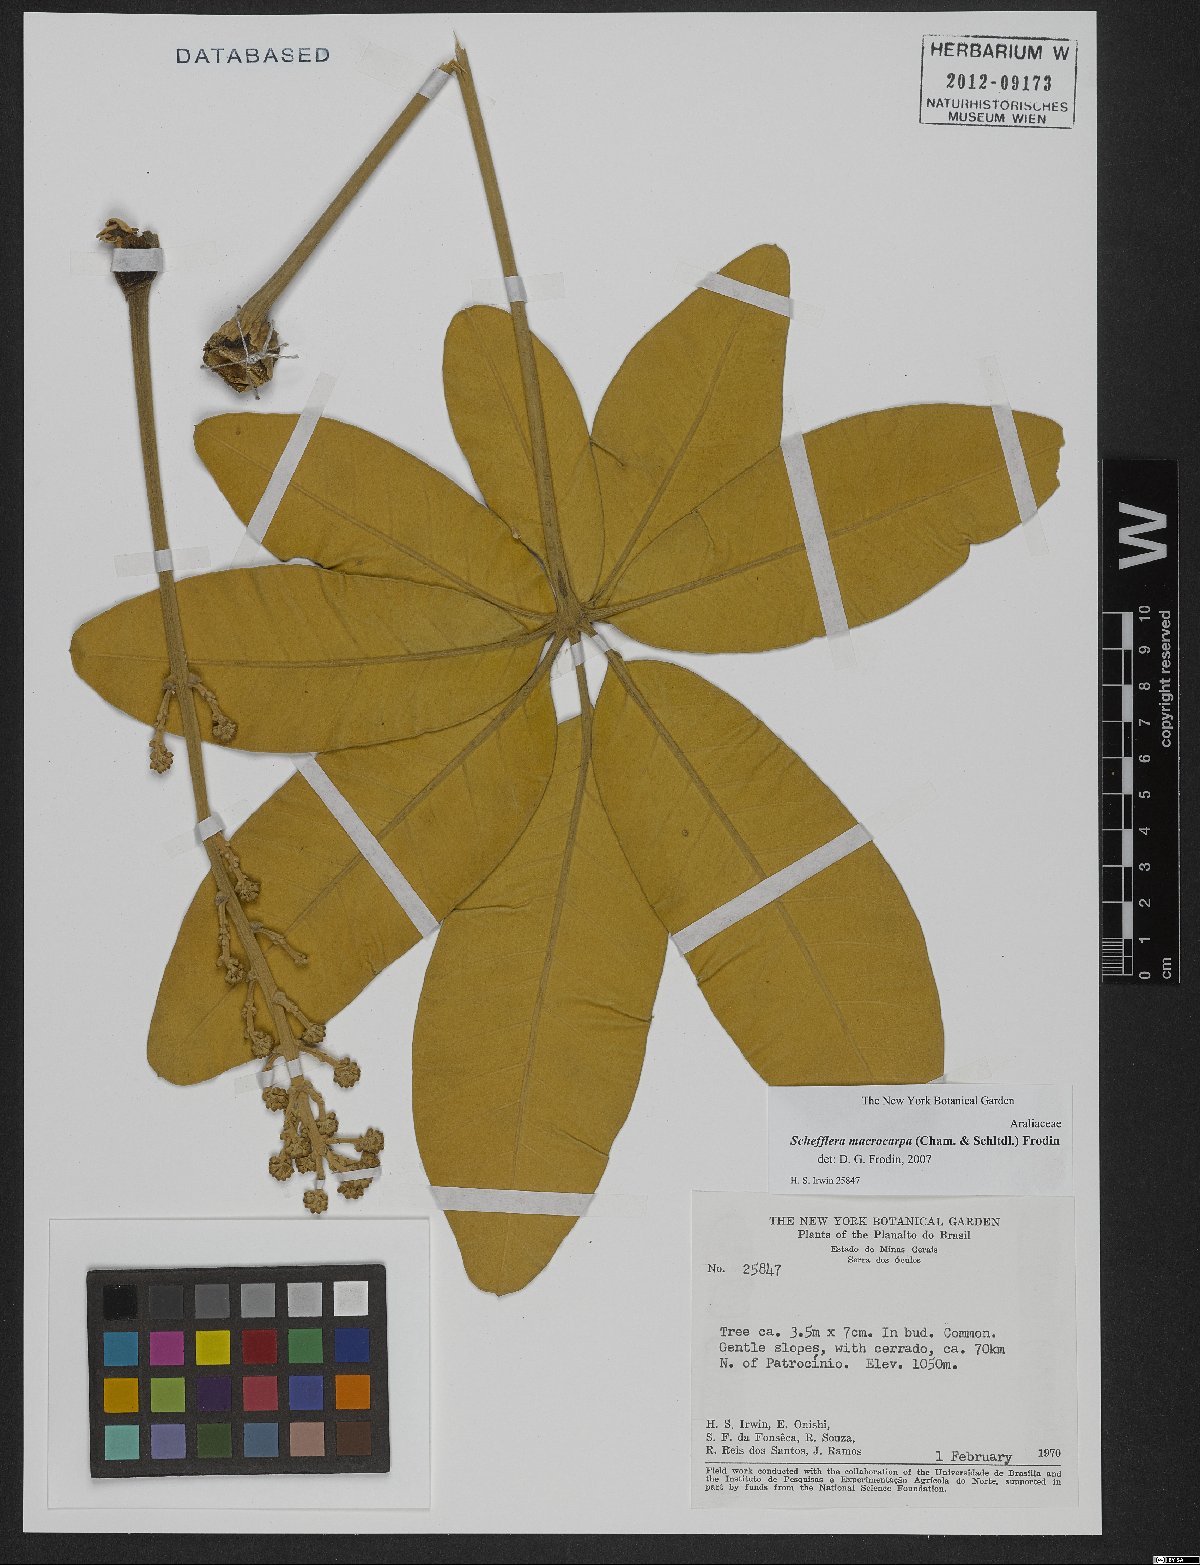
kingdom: Plantae
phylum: Tracheophyta
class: Magnoliopsida
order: Apiales
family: Araliaceae
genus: Didymopanax
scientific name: Didymopanax macrocarpus
